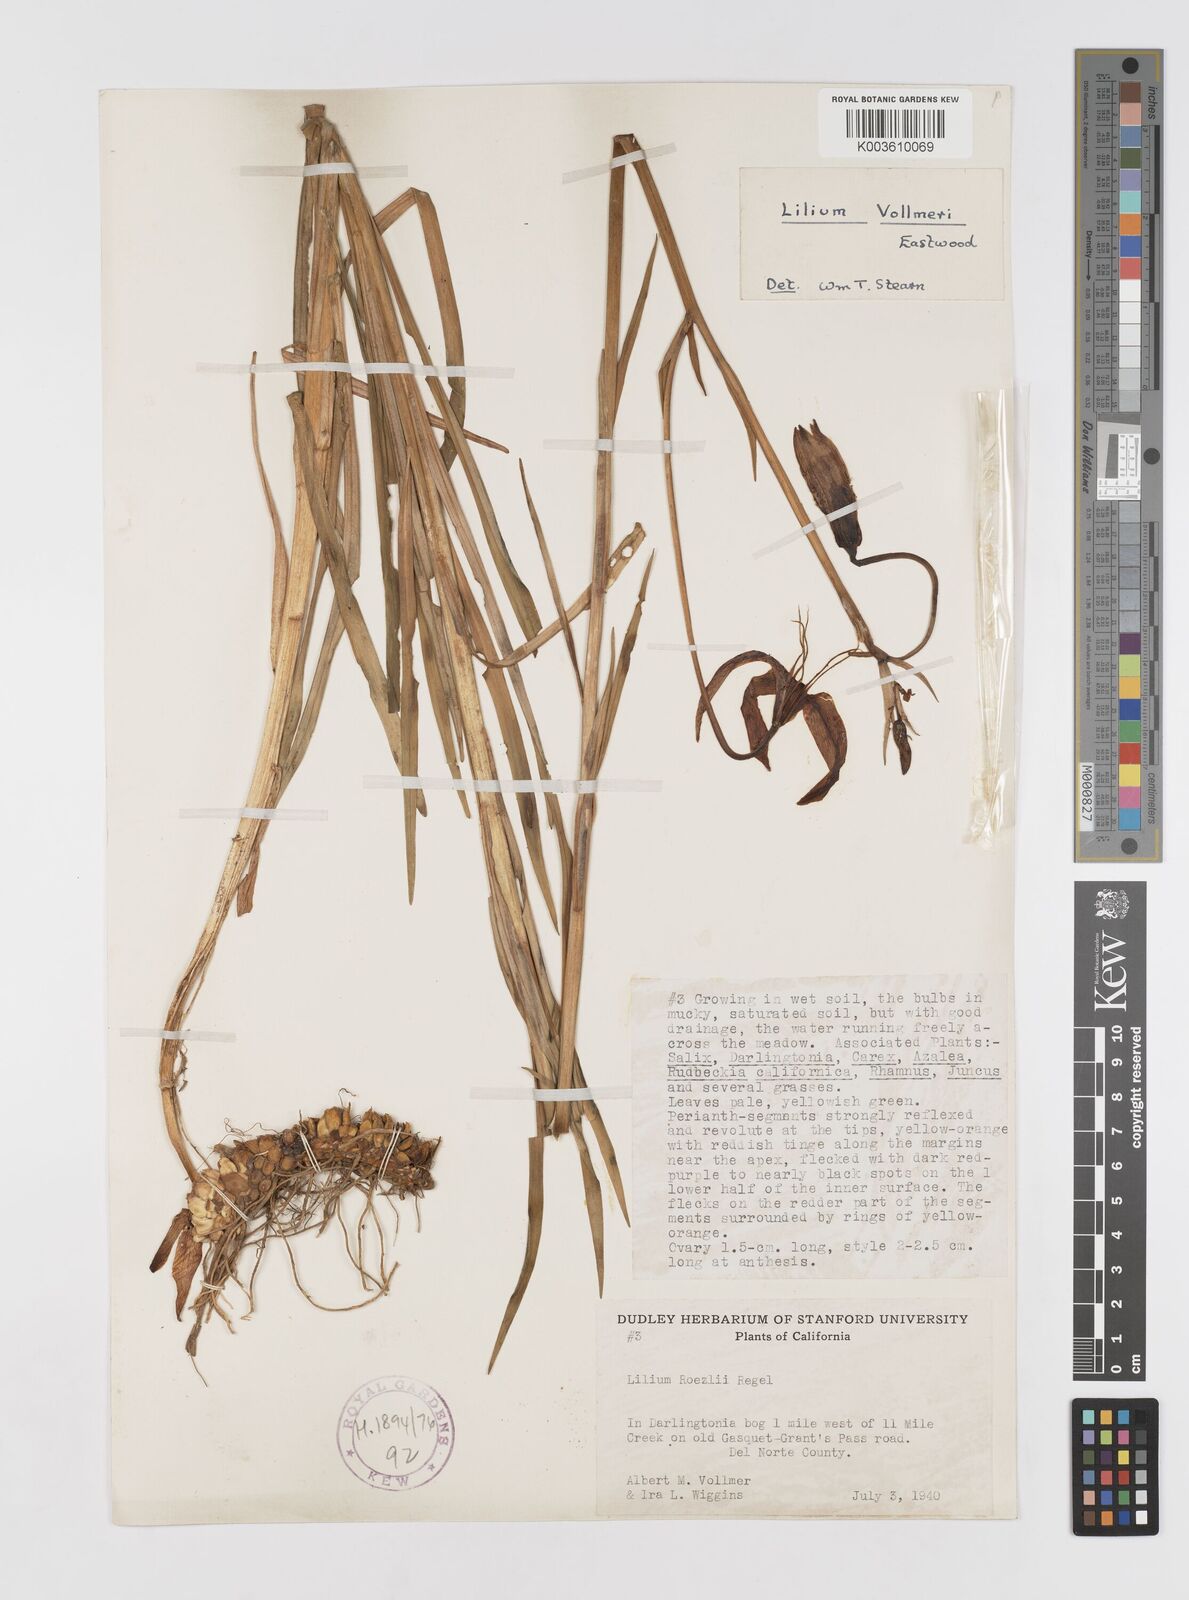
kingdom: Plantae
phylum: Tracheophyta
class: Liliopsida
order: Liliales
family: Liliaceae
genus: Lilium
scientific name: Lilium pardalinum
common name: Panther lily
